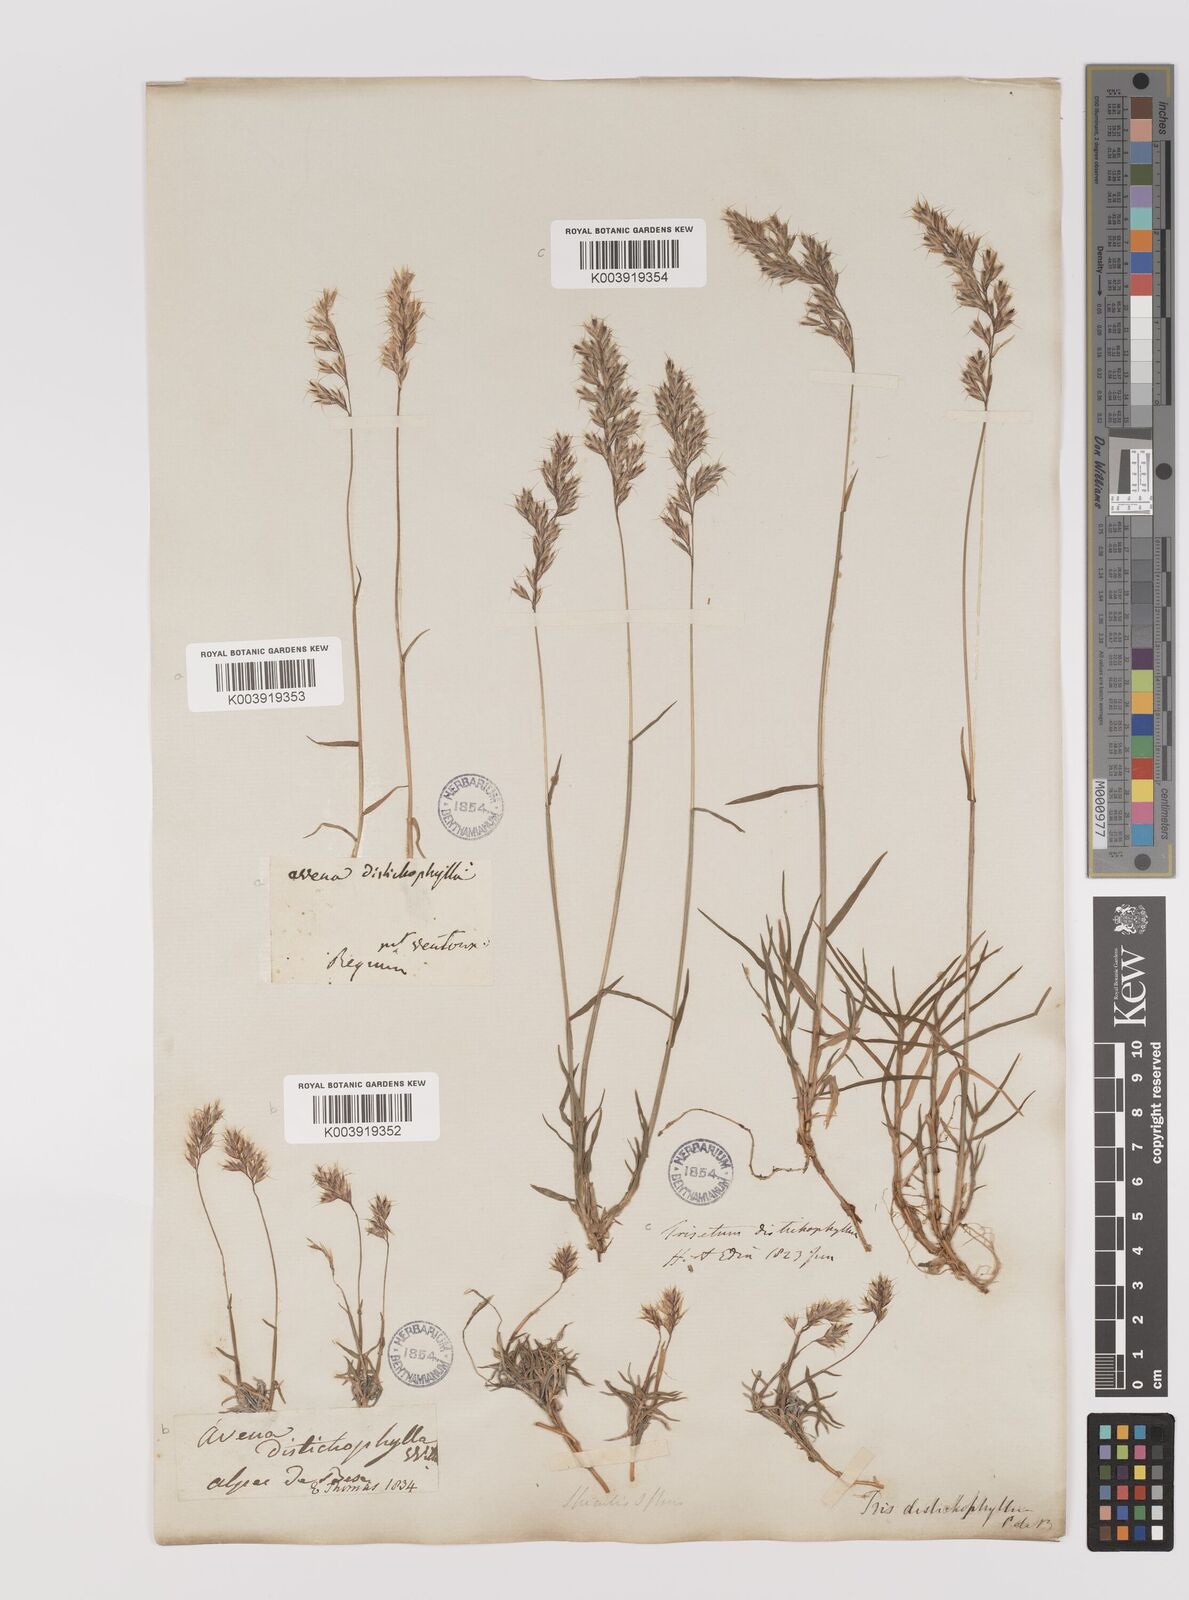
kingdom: Plantae
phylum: Tracheophyta
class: Liliopsida
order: Poales
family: Poaceae
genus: Acrospelion
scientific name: Acrospelion distichophyllum
